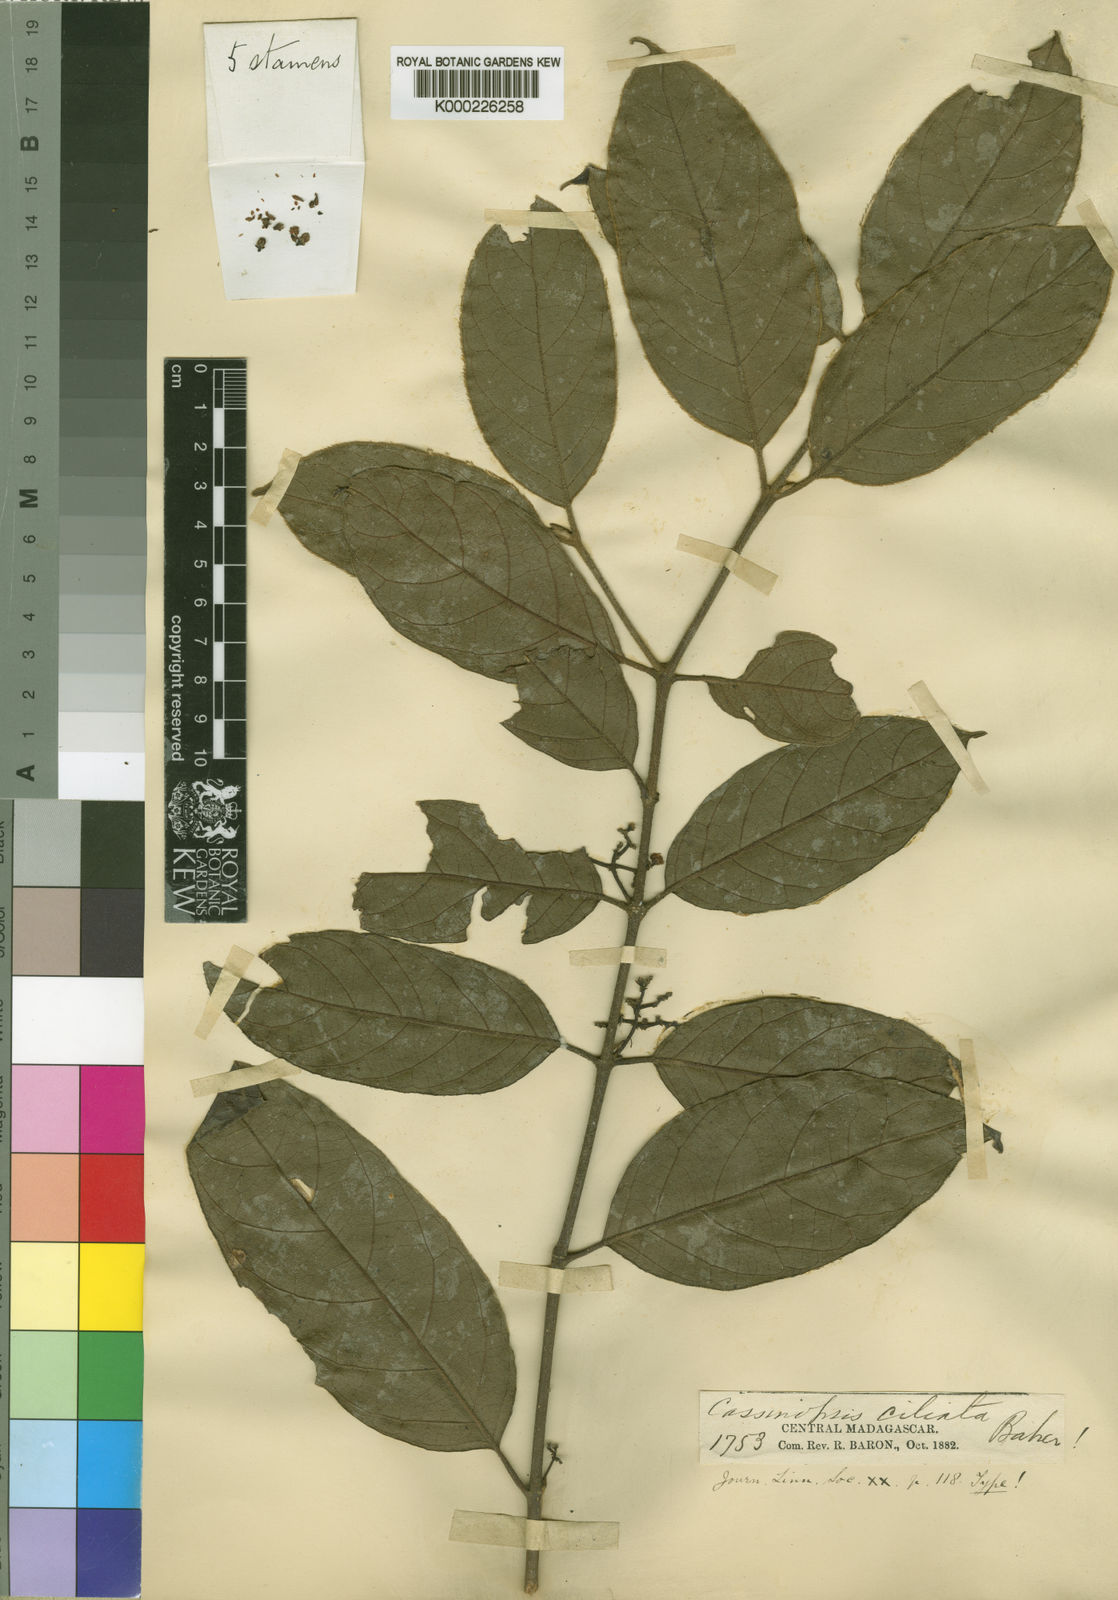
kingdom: Plantae
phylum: Tracheophyta
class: Magnoliopsida
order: Icacinales
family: Icacinaceae
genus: Cassinopsis
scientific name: Cassinopsis ciliata
